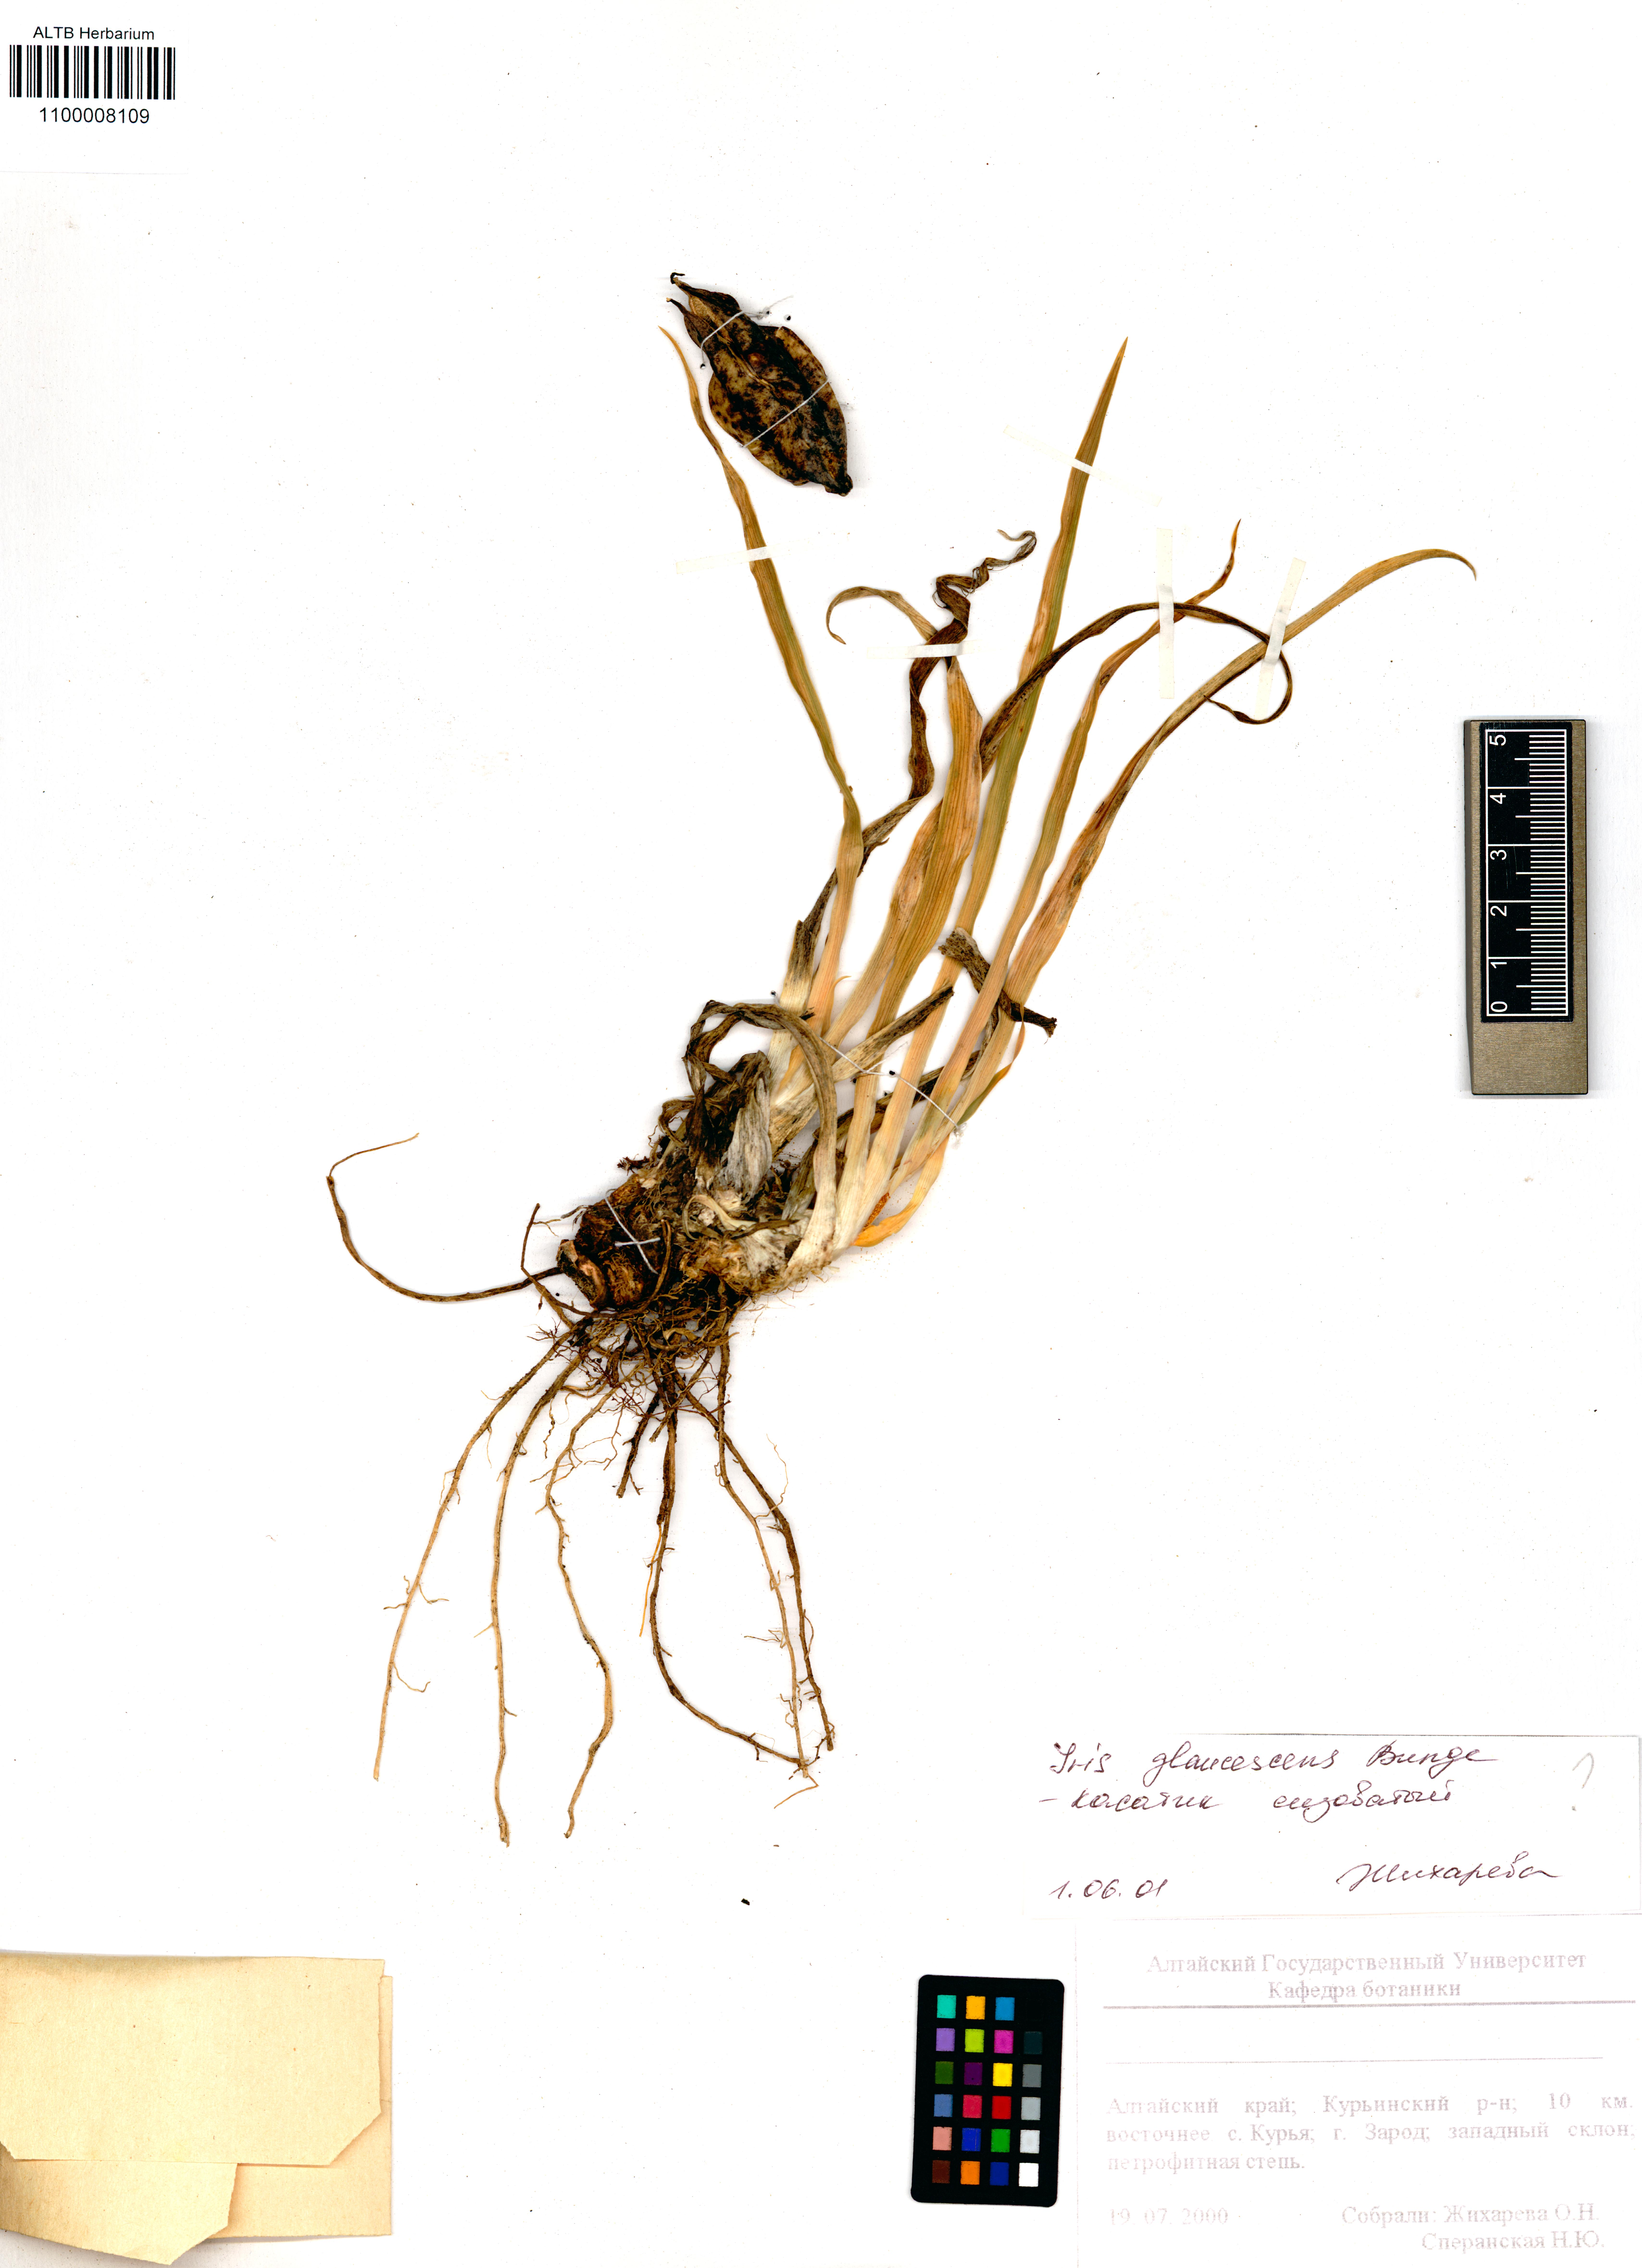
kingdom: Plantae
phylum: Tracheophyta
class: Liliopsida
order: Asparagales
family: Iridaceae
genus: Iris
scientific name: Iris glaucescens
